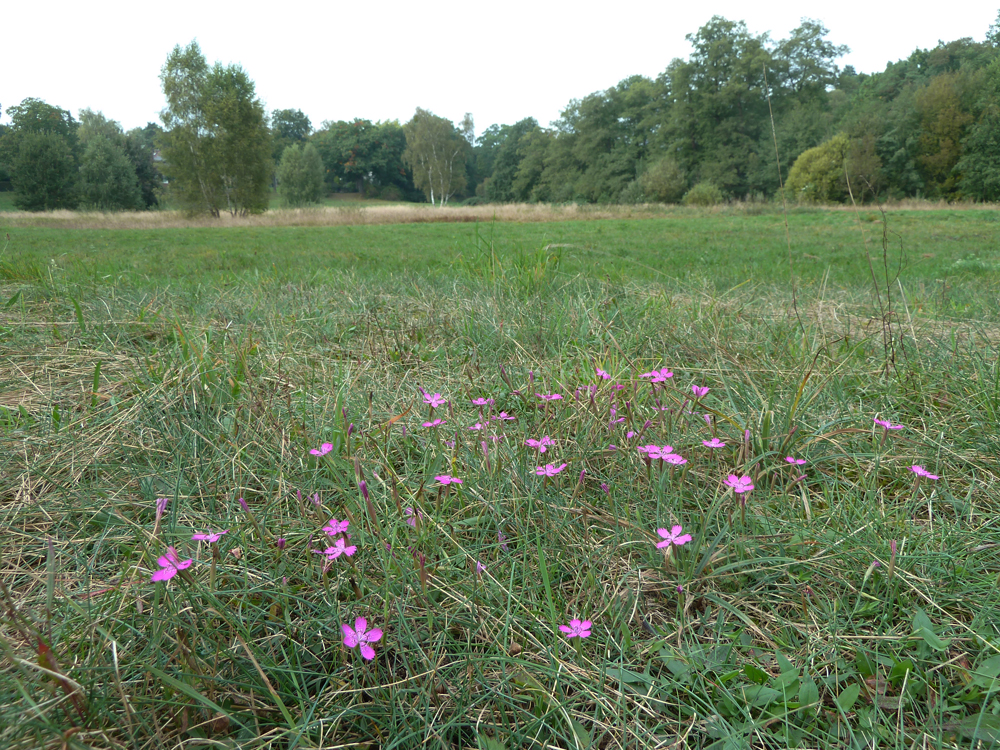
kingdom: Plantae
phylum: Tracheophyta
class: Magnoliopsida
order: Caryophyllales
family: Caryophyllaceae
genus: Dianthus
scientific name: Dianthus deltoides
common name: Maiden pink
